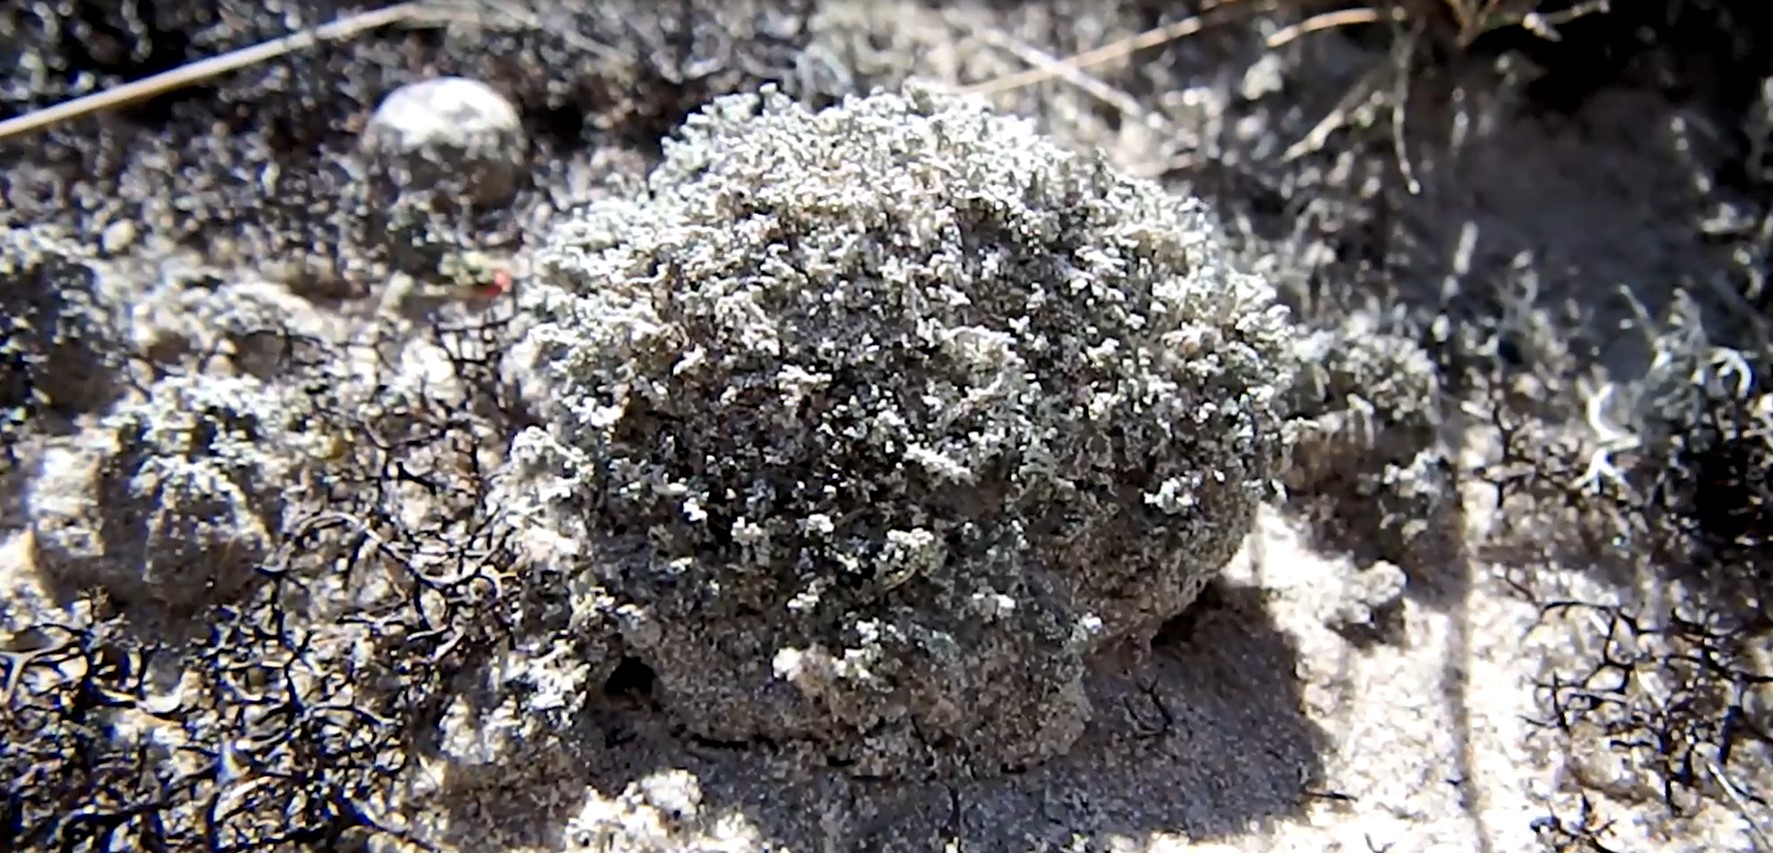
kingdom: Fungi
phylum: Ascomycota
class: Lecanoromycetes
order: Lecanorales
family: Stereocaulaceae
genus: Stereocaulon
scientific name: Stereocaulon condensatum
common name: lav korallav
